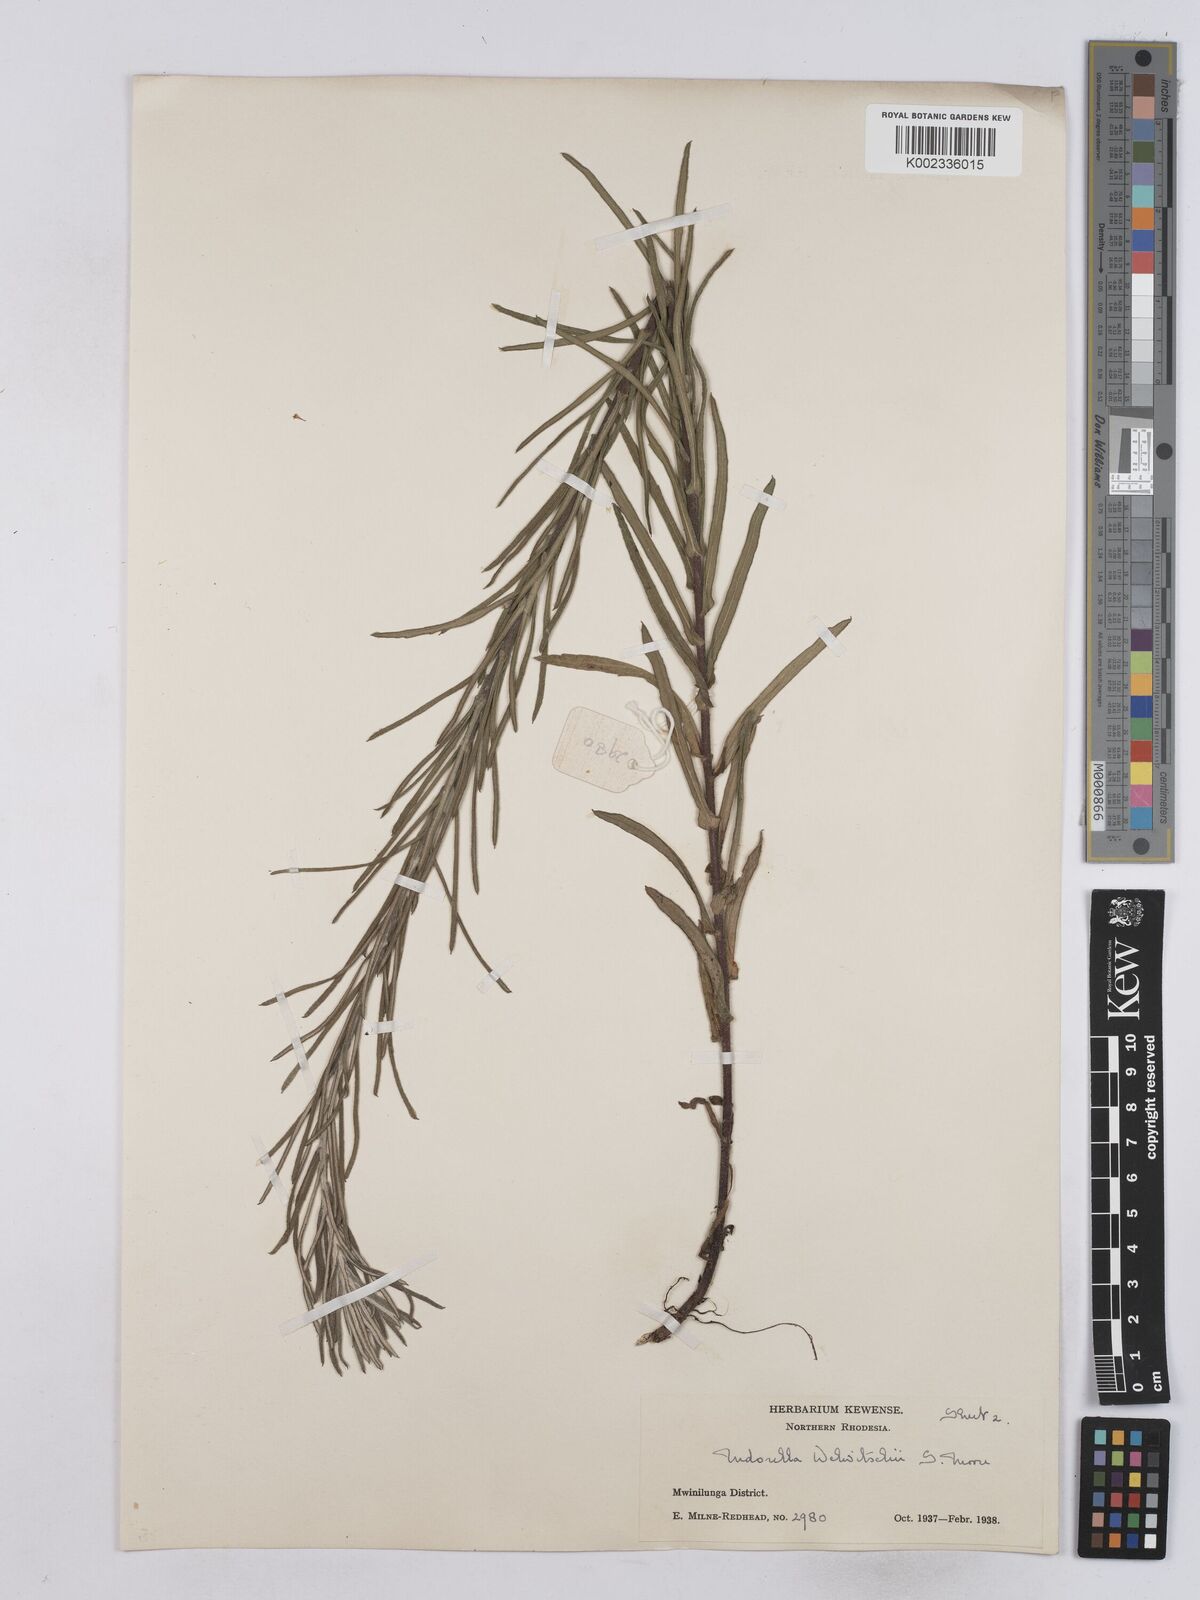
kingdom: Plantae
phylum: Tracheophyta
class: Magnoliopsida
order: Asterales
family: Asteraceae
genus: Nidorella
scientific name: Nidorella welwitschii
